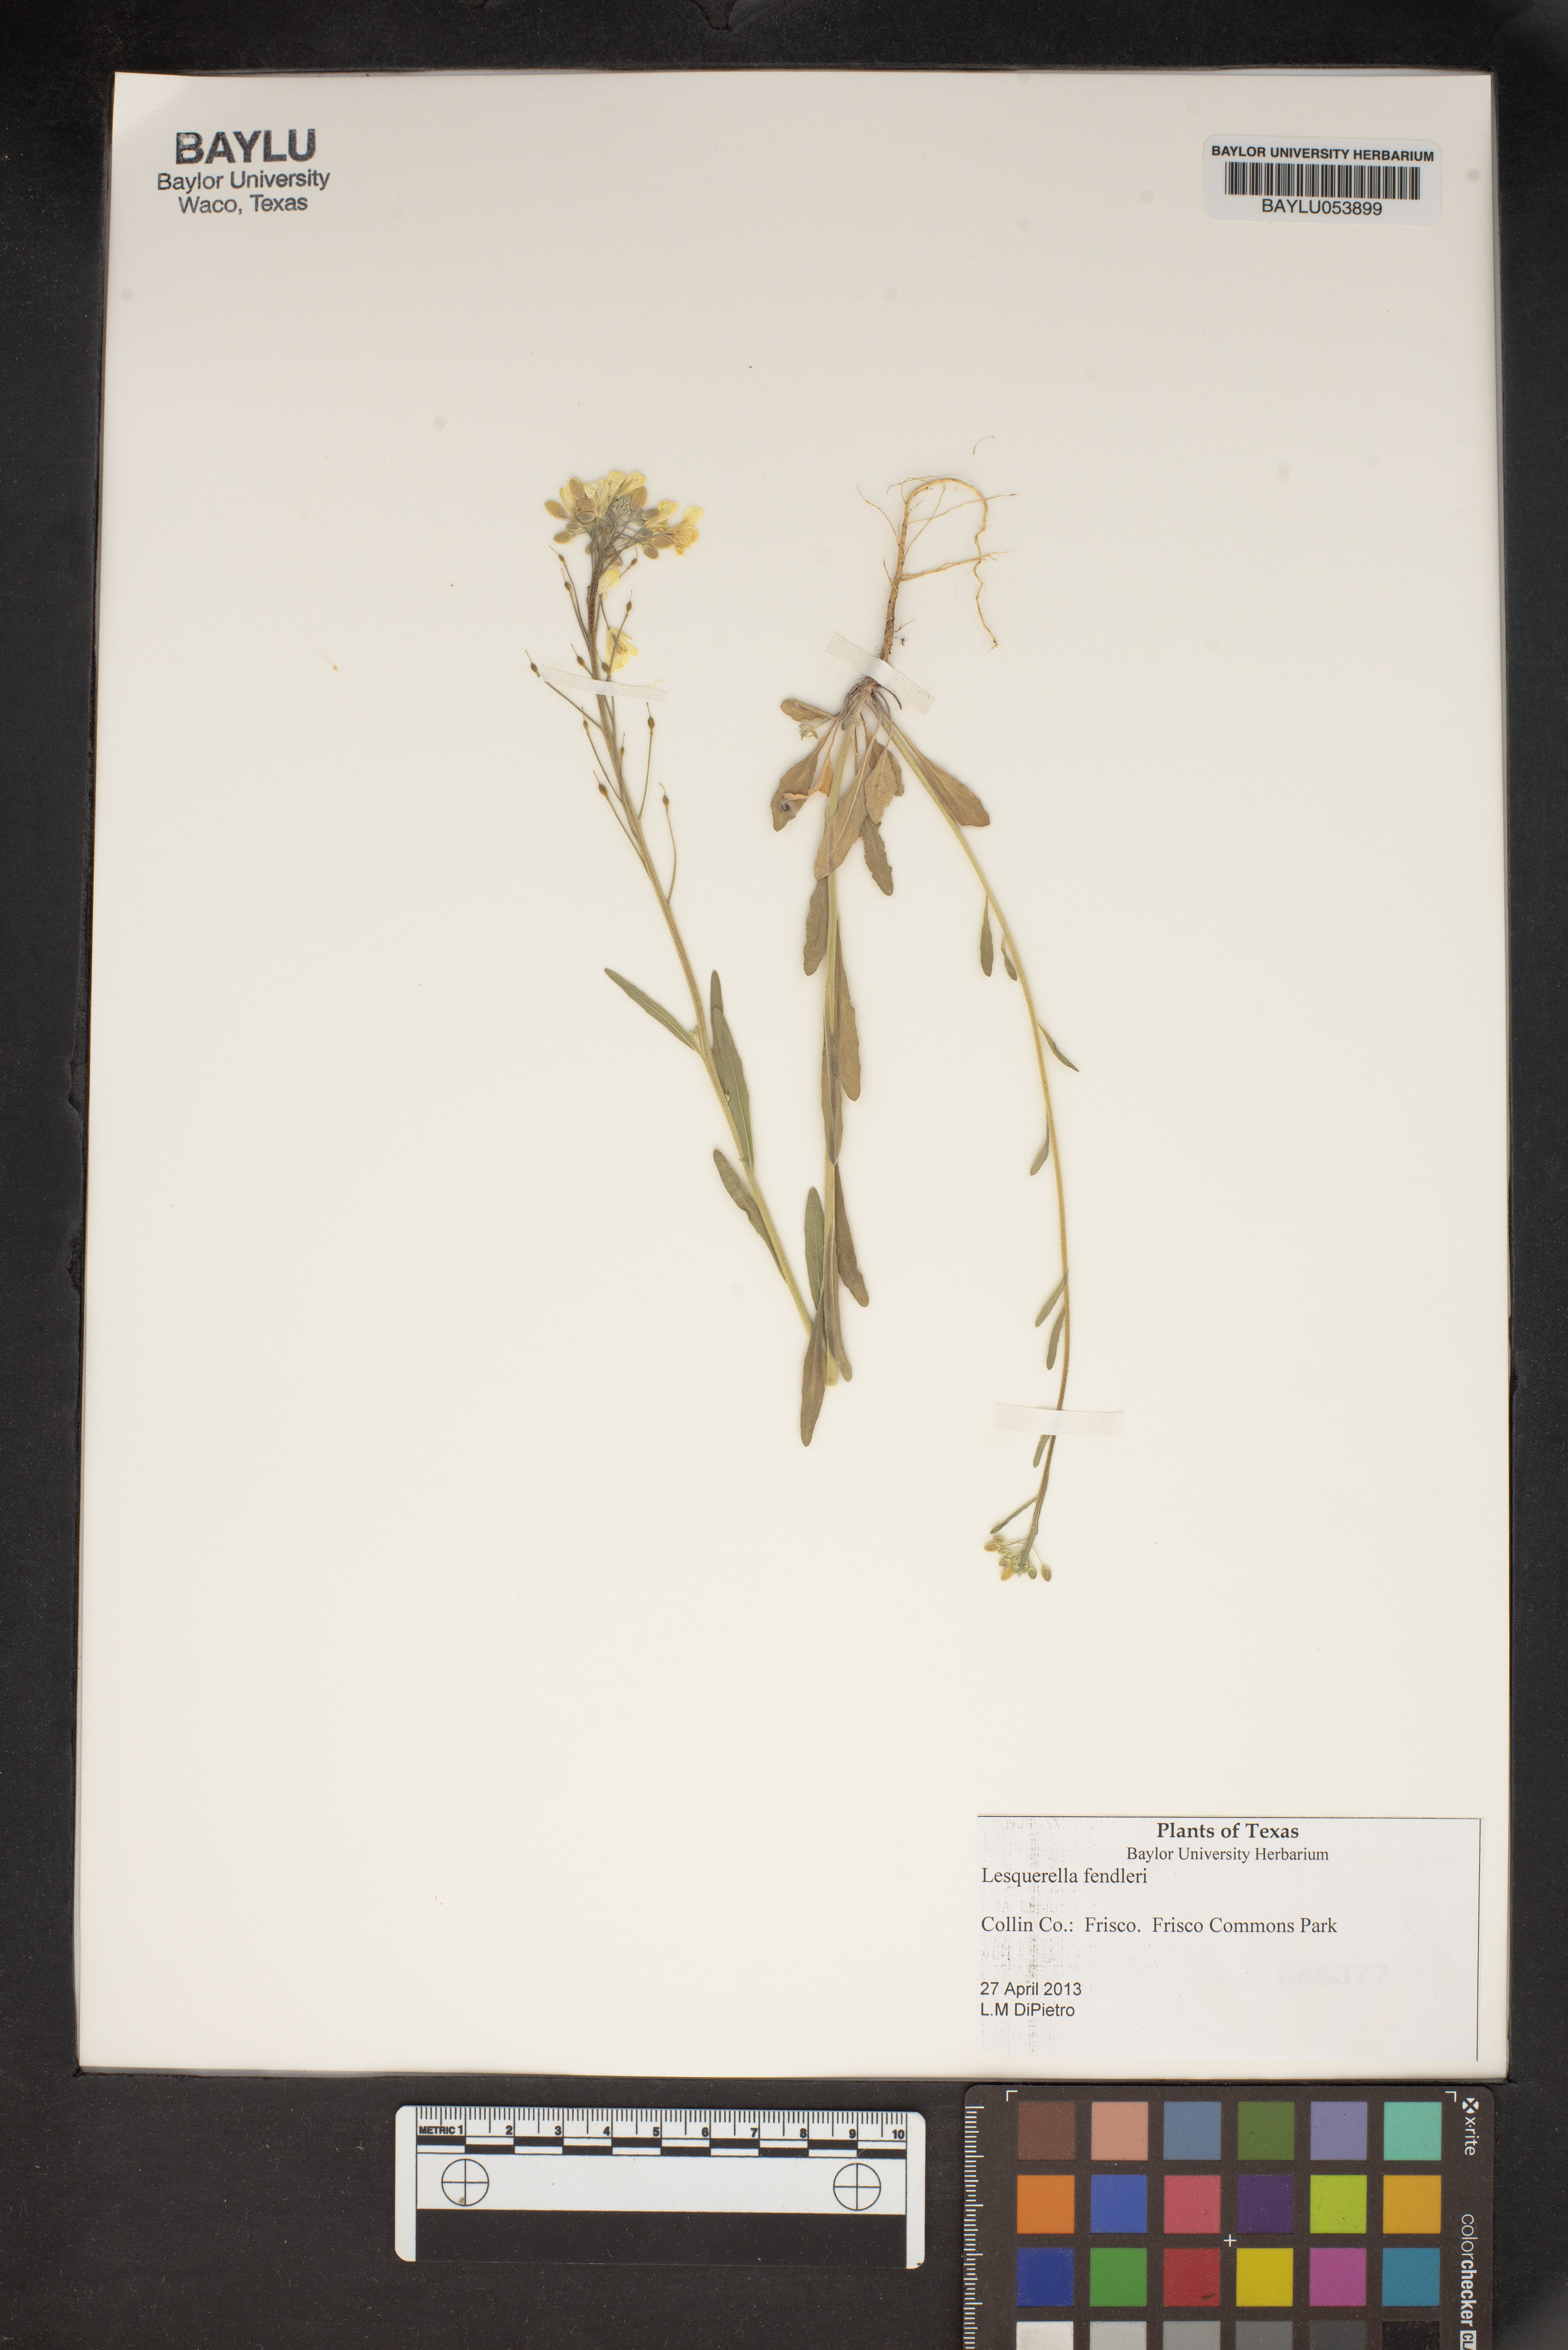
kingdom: Plantae
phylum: Tracheophyta
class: Magnoliopsida
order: Brassicales
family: Brassicaceae
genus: Physaria
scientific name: Physaria fendleri
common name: Fendler's bladderpod
